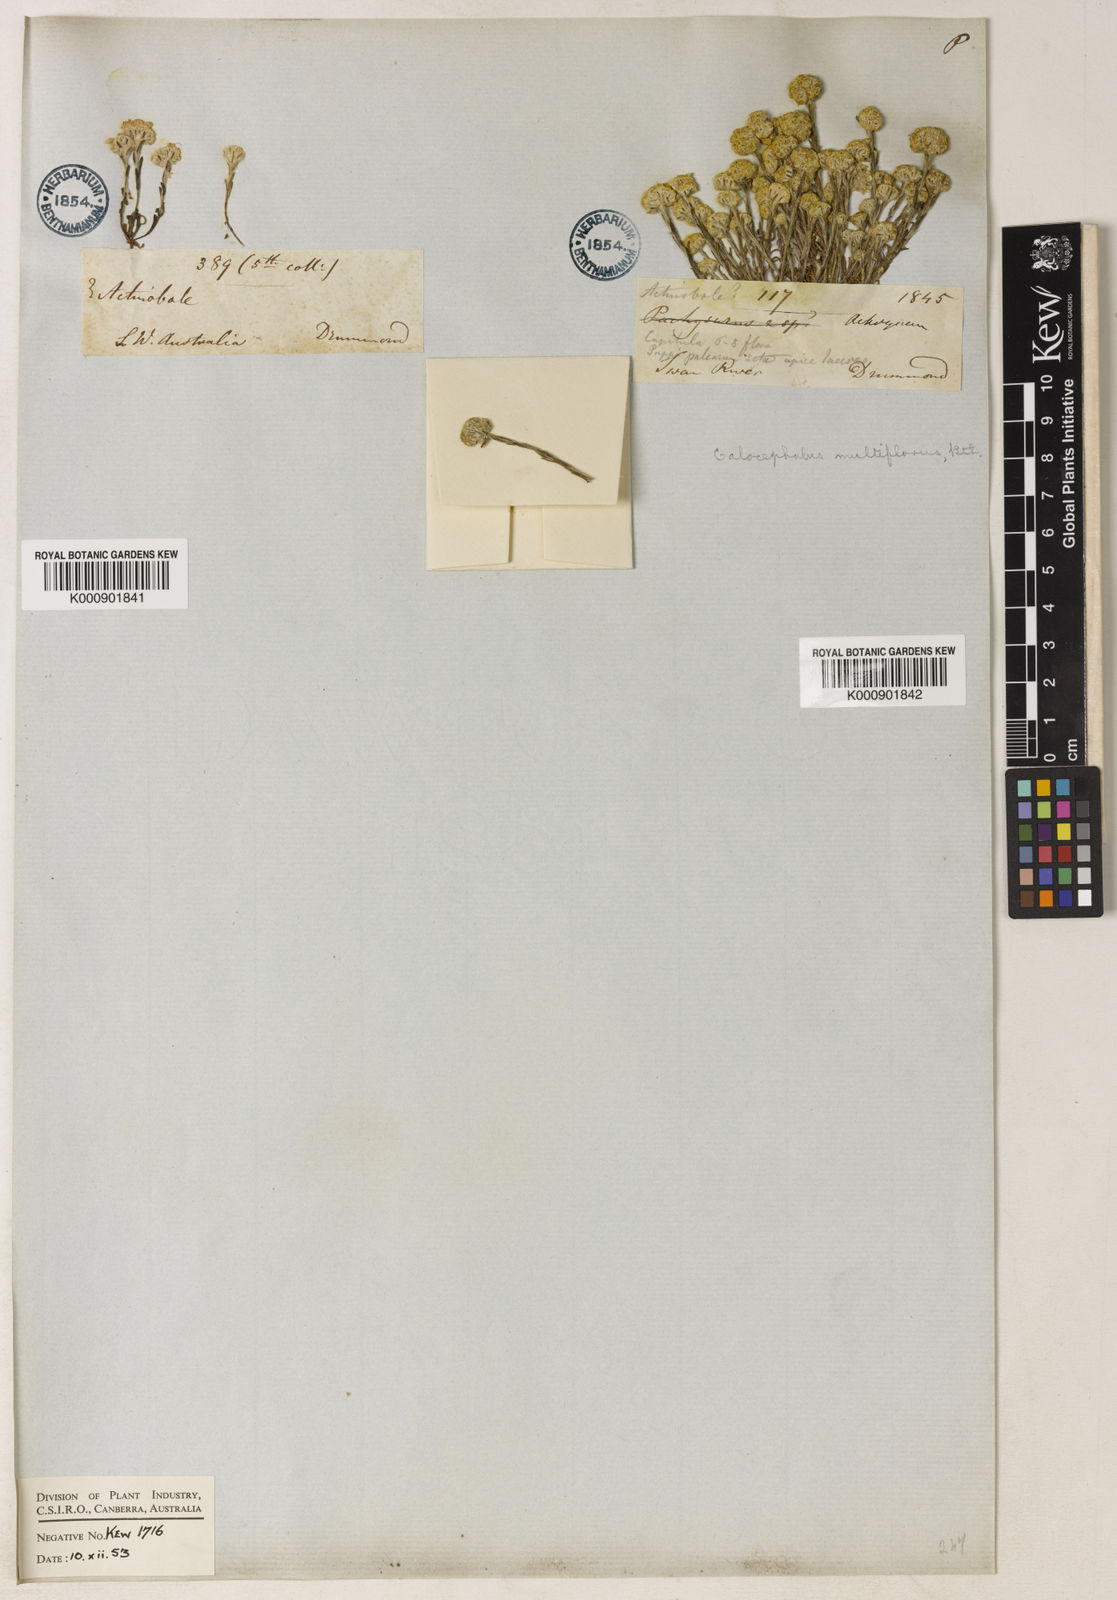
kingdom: Plantae
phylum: Tracheophyta
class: Magnoliopsida
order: Asterales
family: Asteraceae
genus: Calocephalus
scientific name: Calocephalus multiflorus
